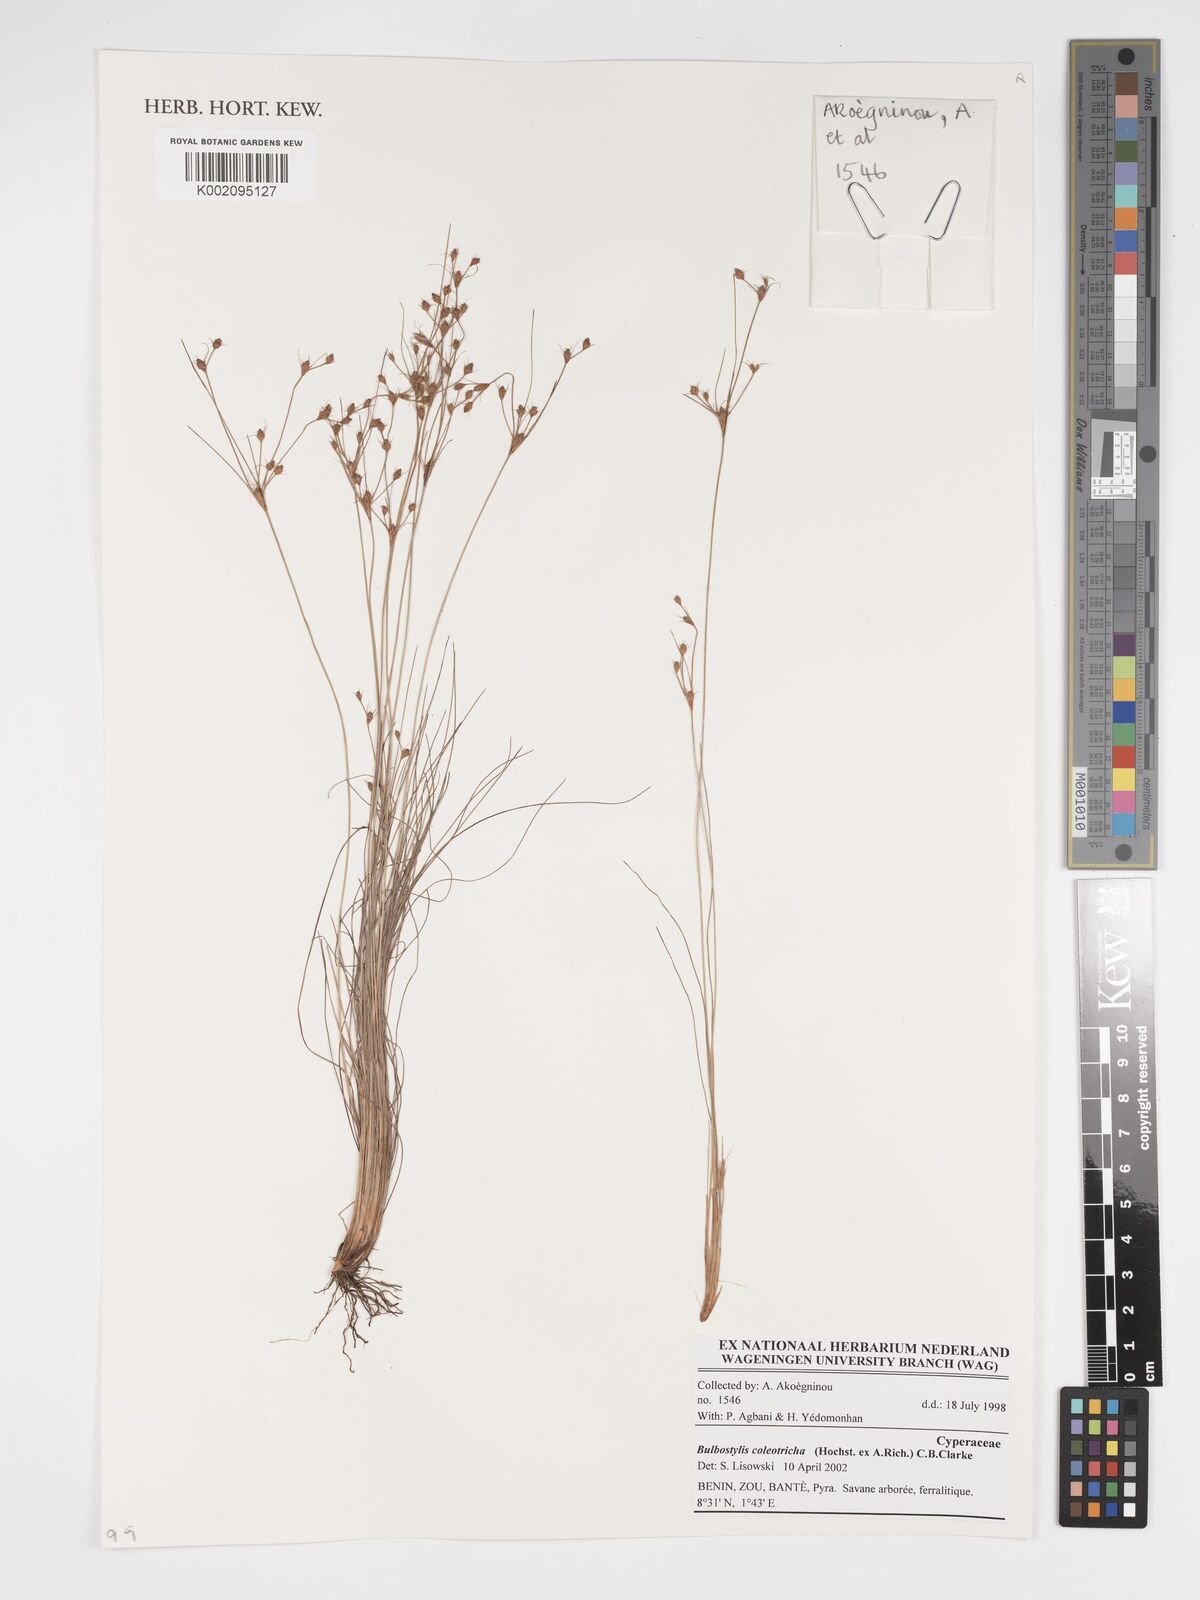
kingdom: Plantae
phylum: Tracheophyta
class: Liliopsida
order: Poales
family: Cyperaceae
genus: Bulbostylis
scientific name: Bulbostylis coleotricha
